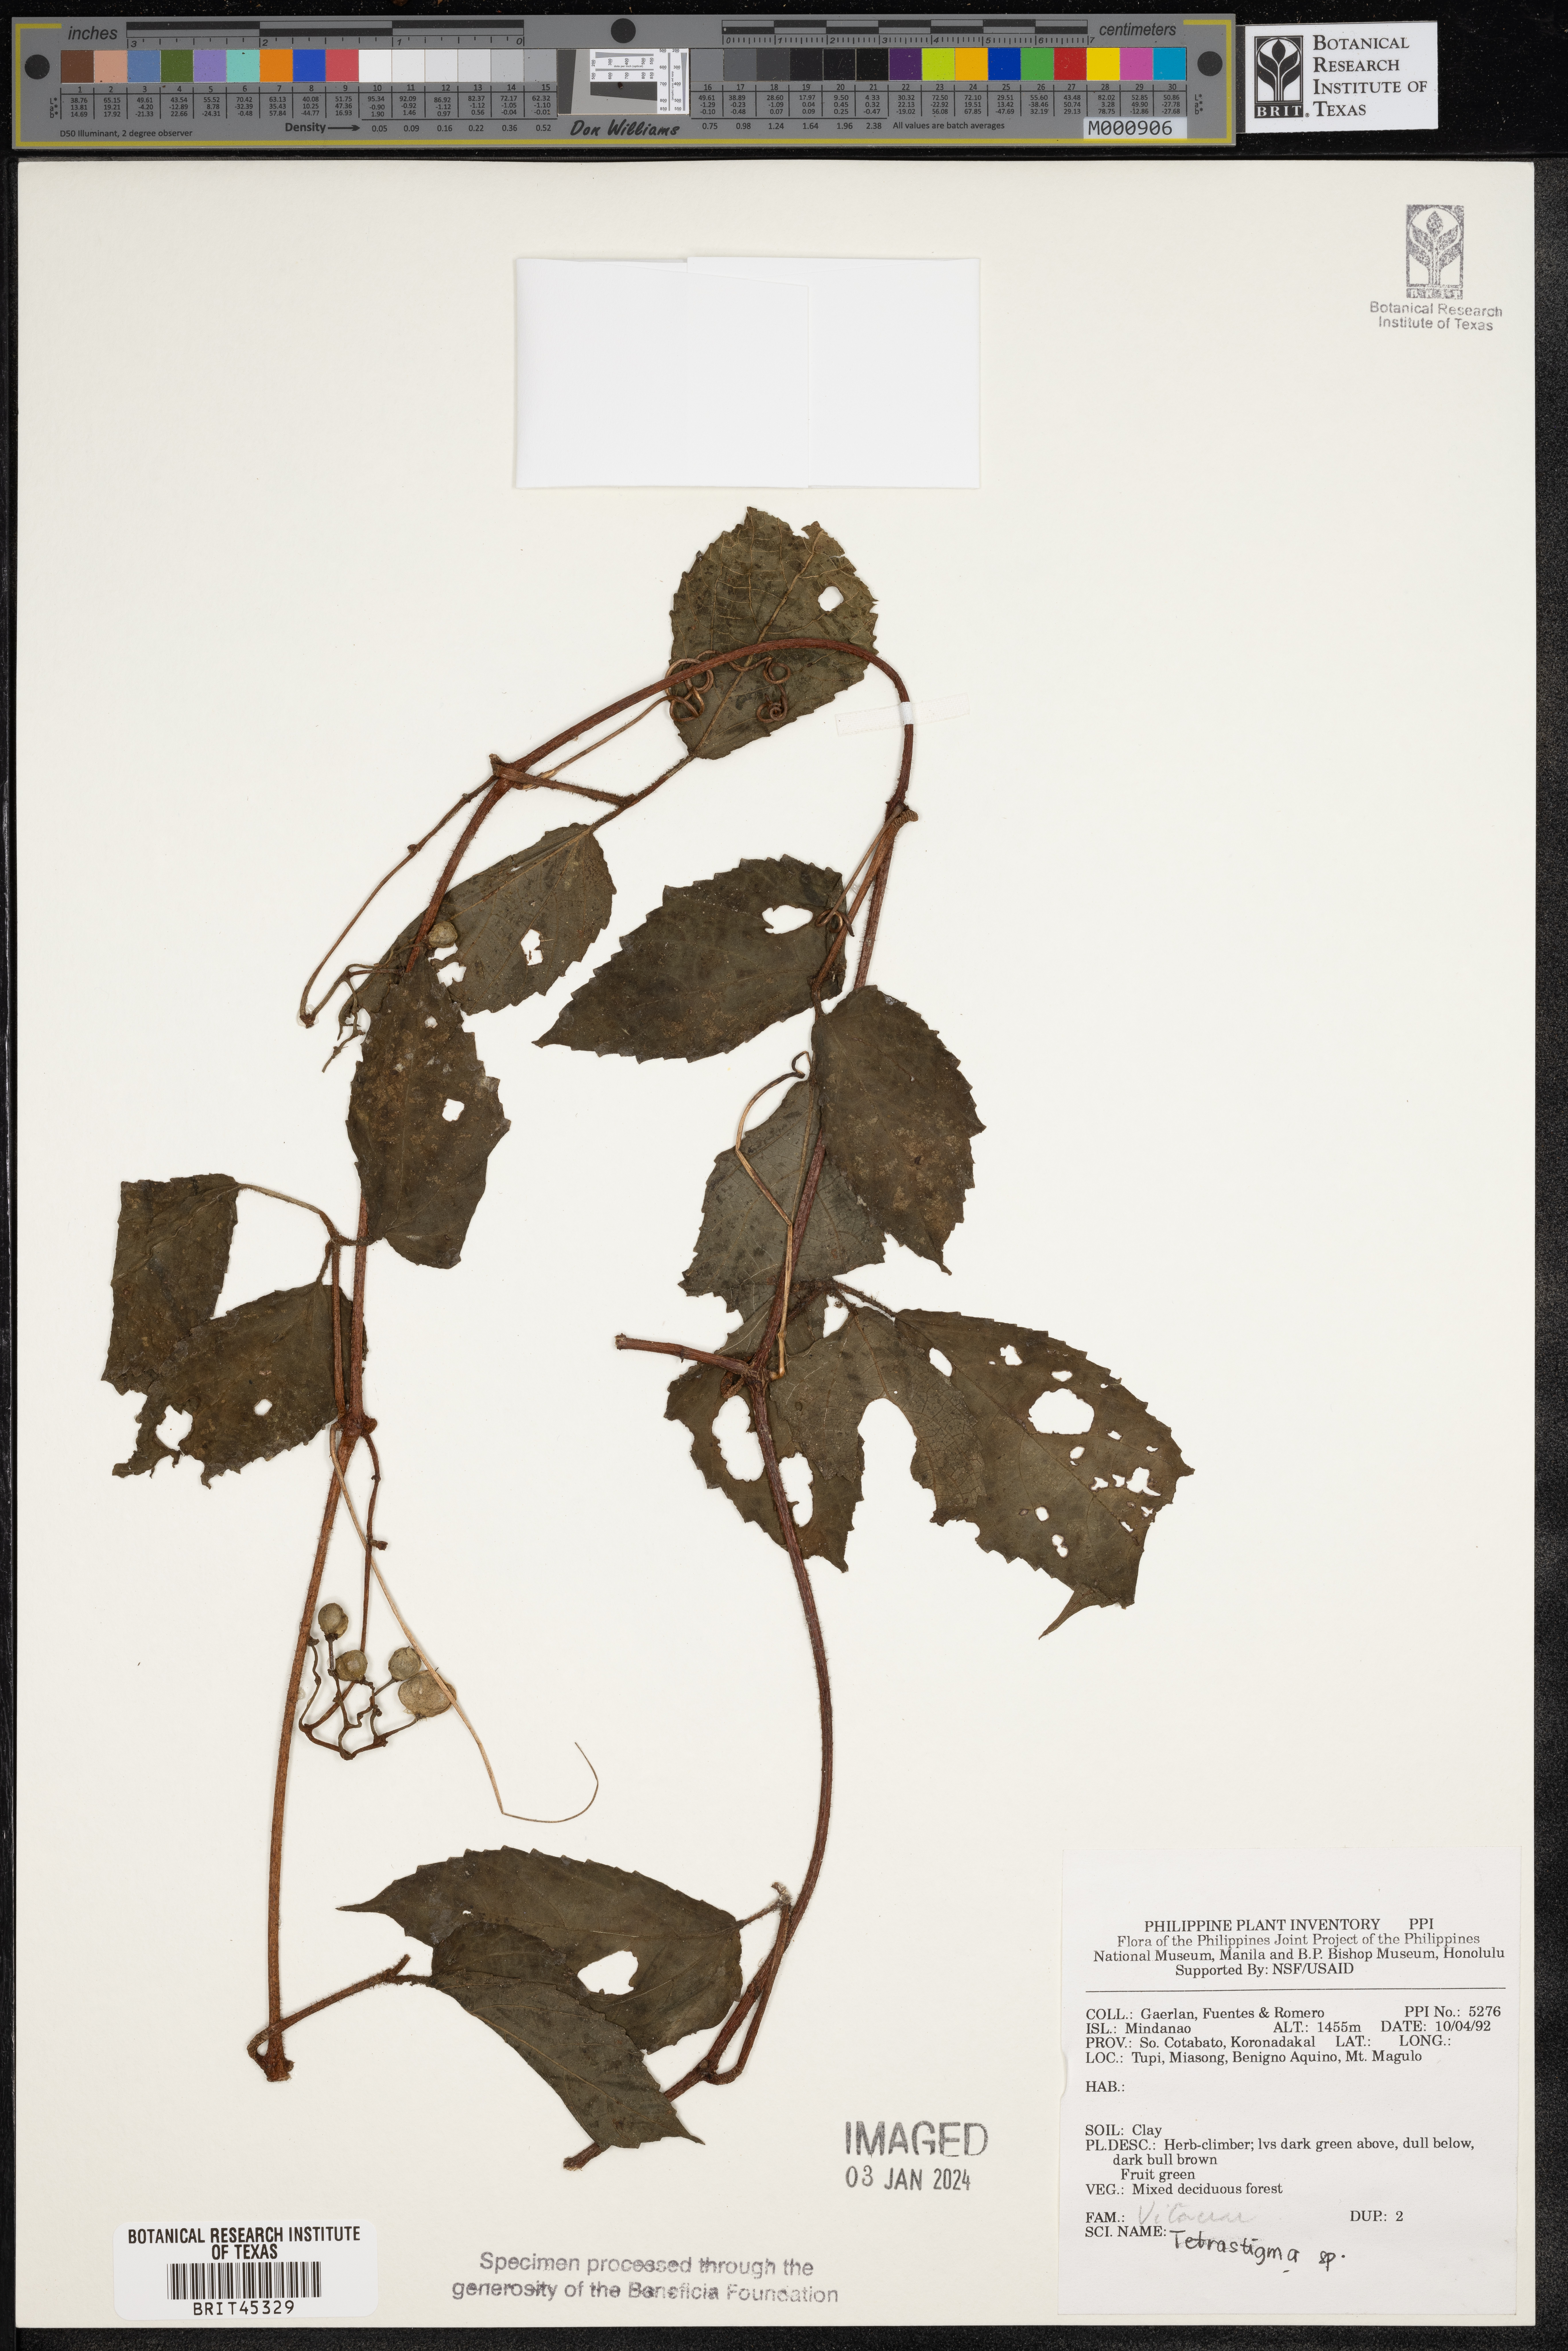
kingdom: Plantae
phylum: Tracheophyta
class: Magnoliopsida
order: Vitales
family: Vitaceae
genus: Tetrastigma
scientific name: Tetrastigma
